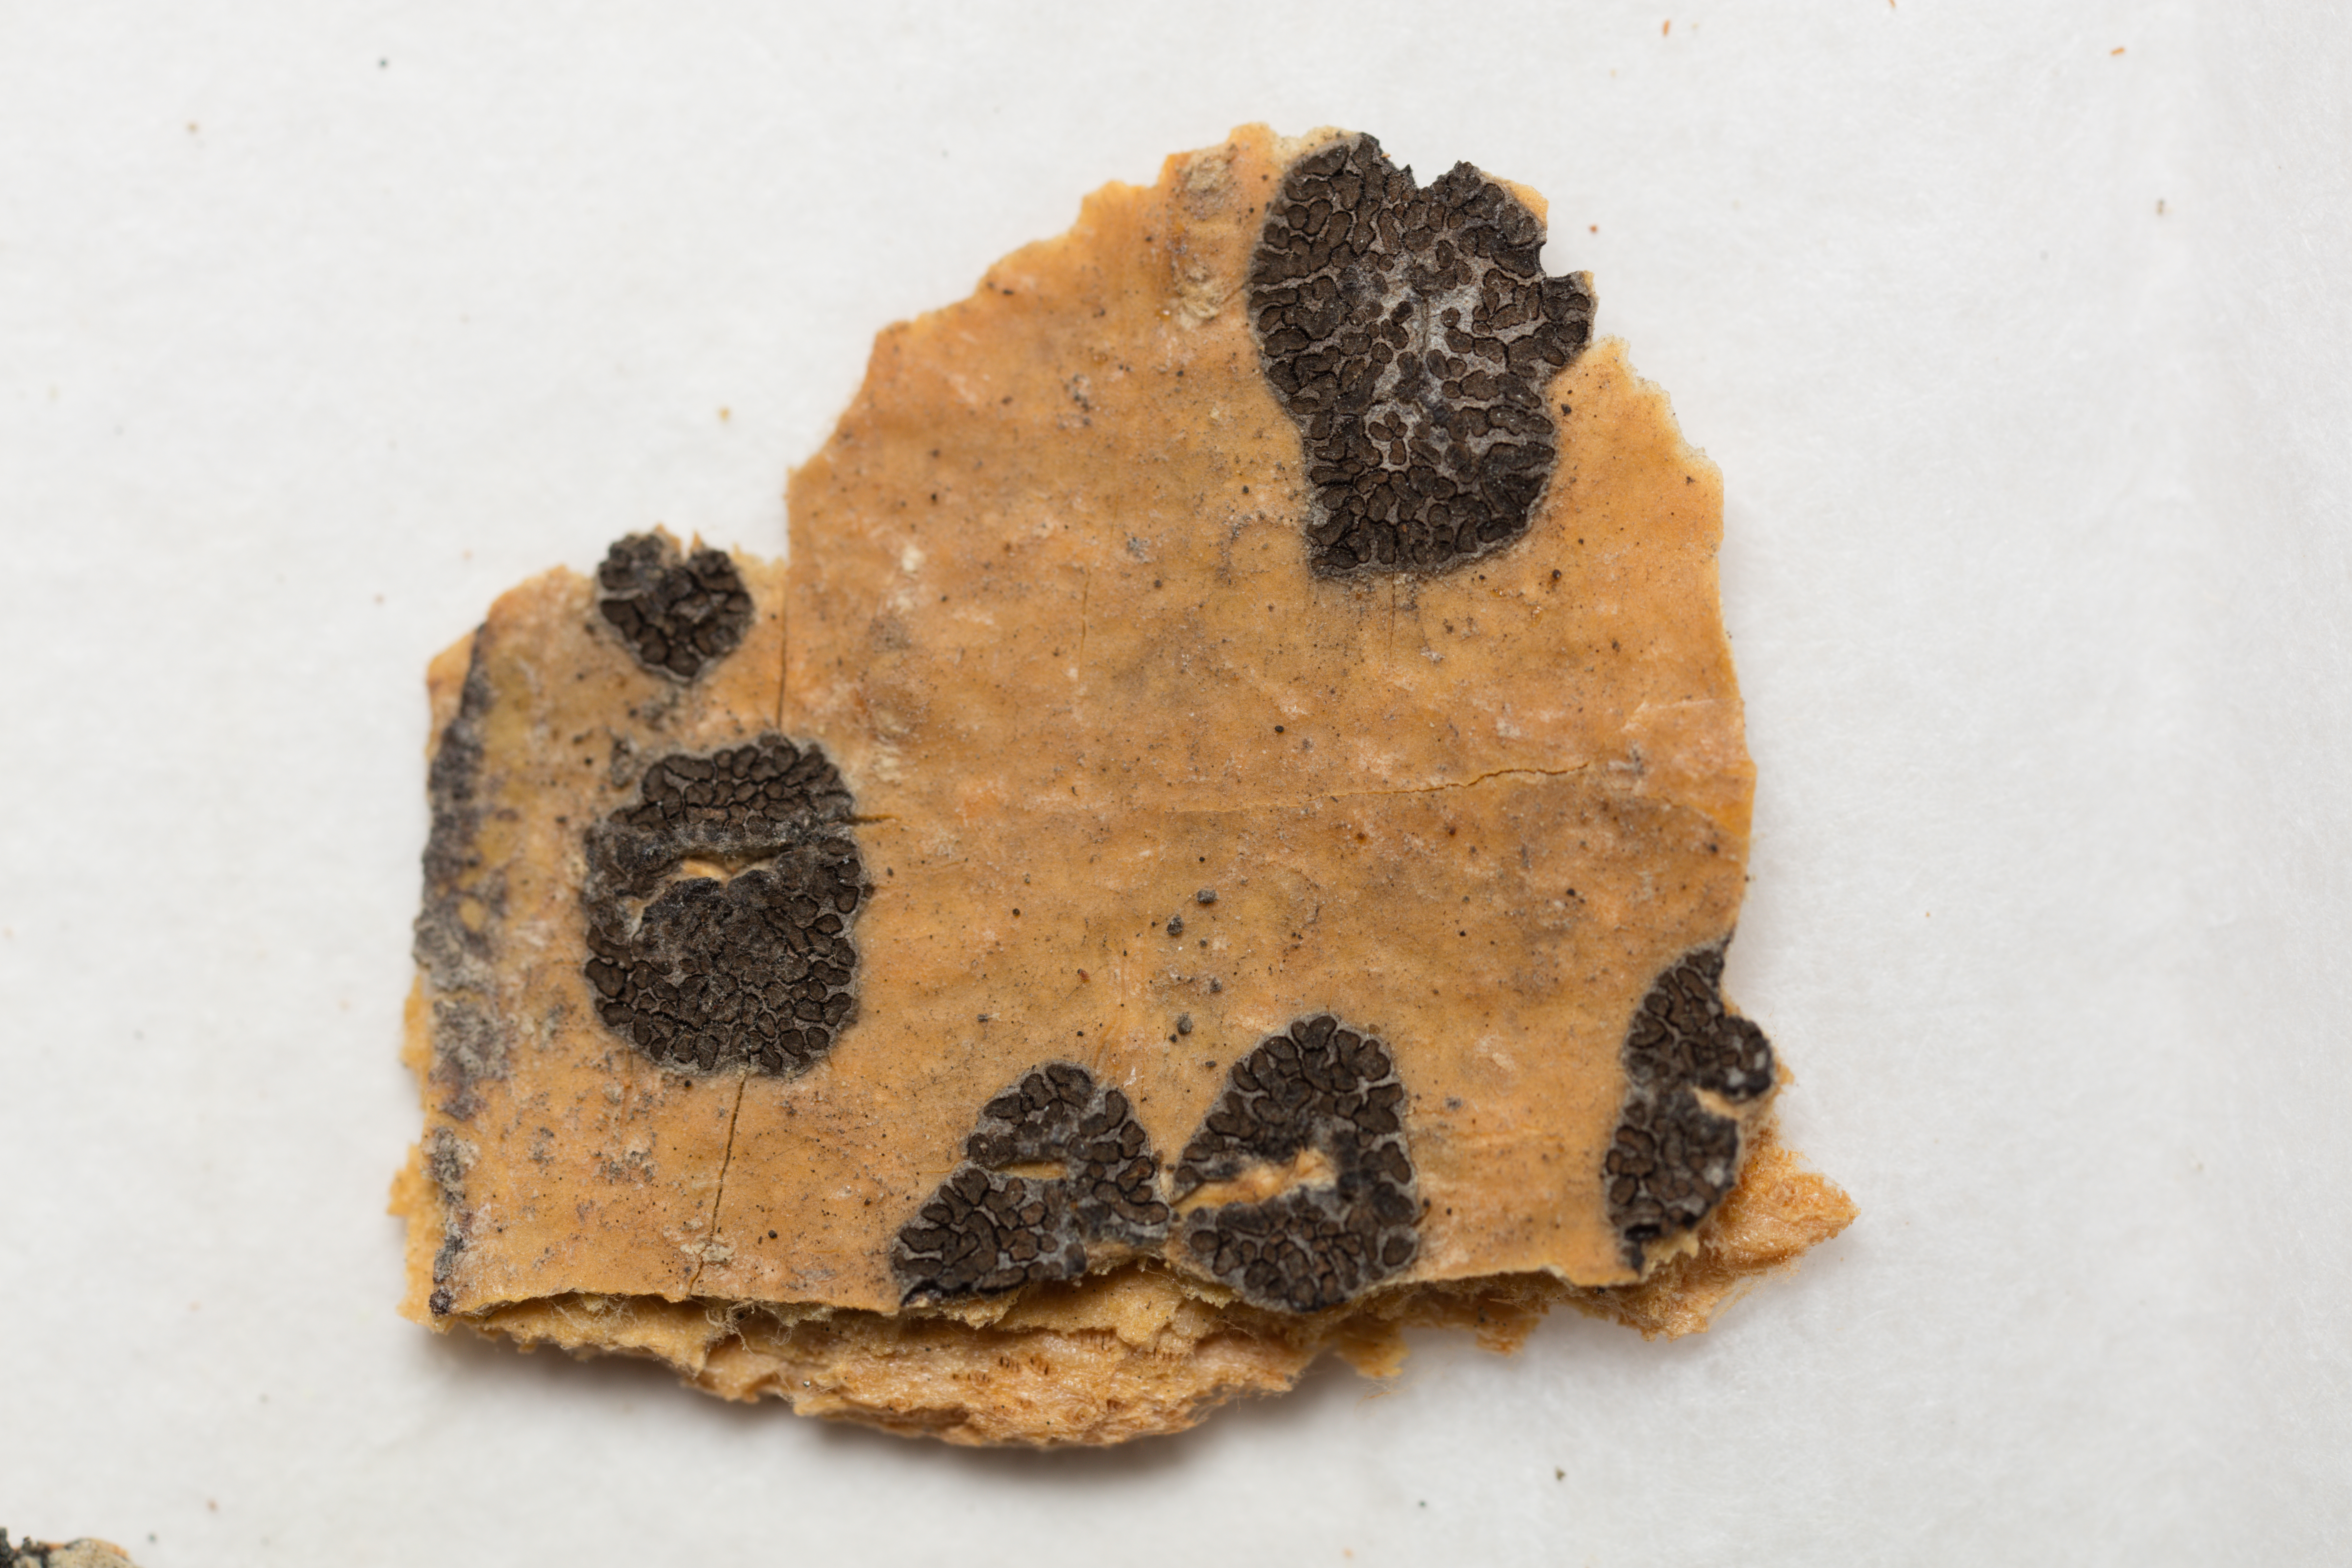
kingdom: Fungi
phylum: Ascomycota
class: Lecanoromycetes
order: Ostropales
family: Graphidaceae
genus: Glyphis
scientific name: Glyphis achariana
